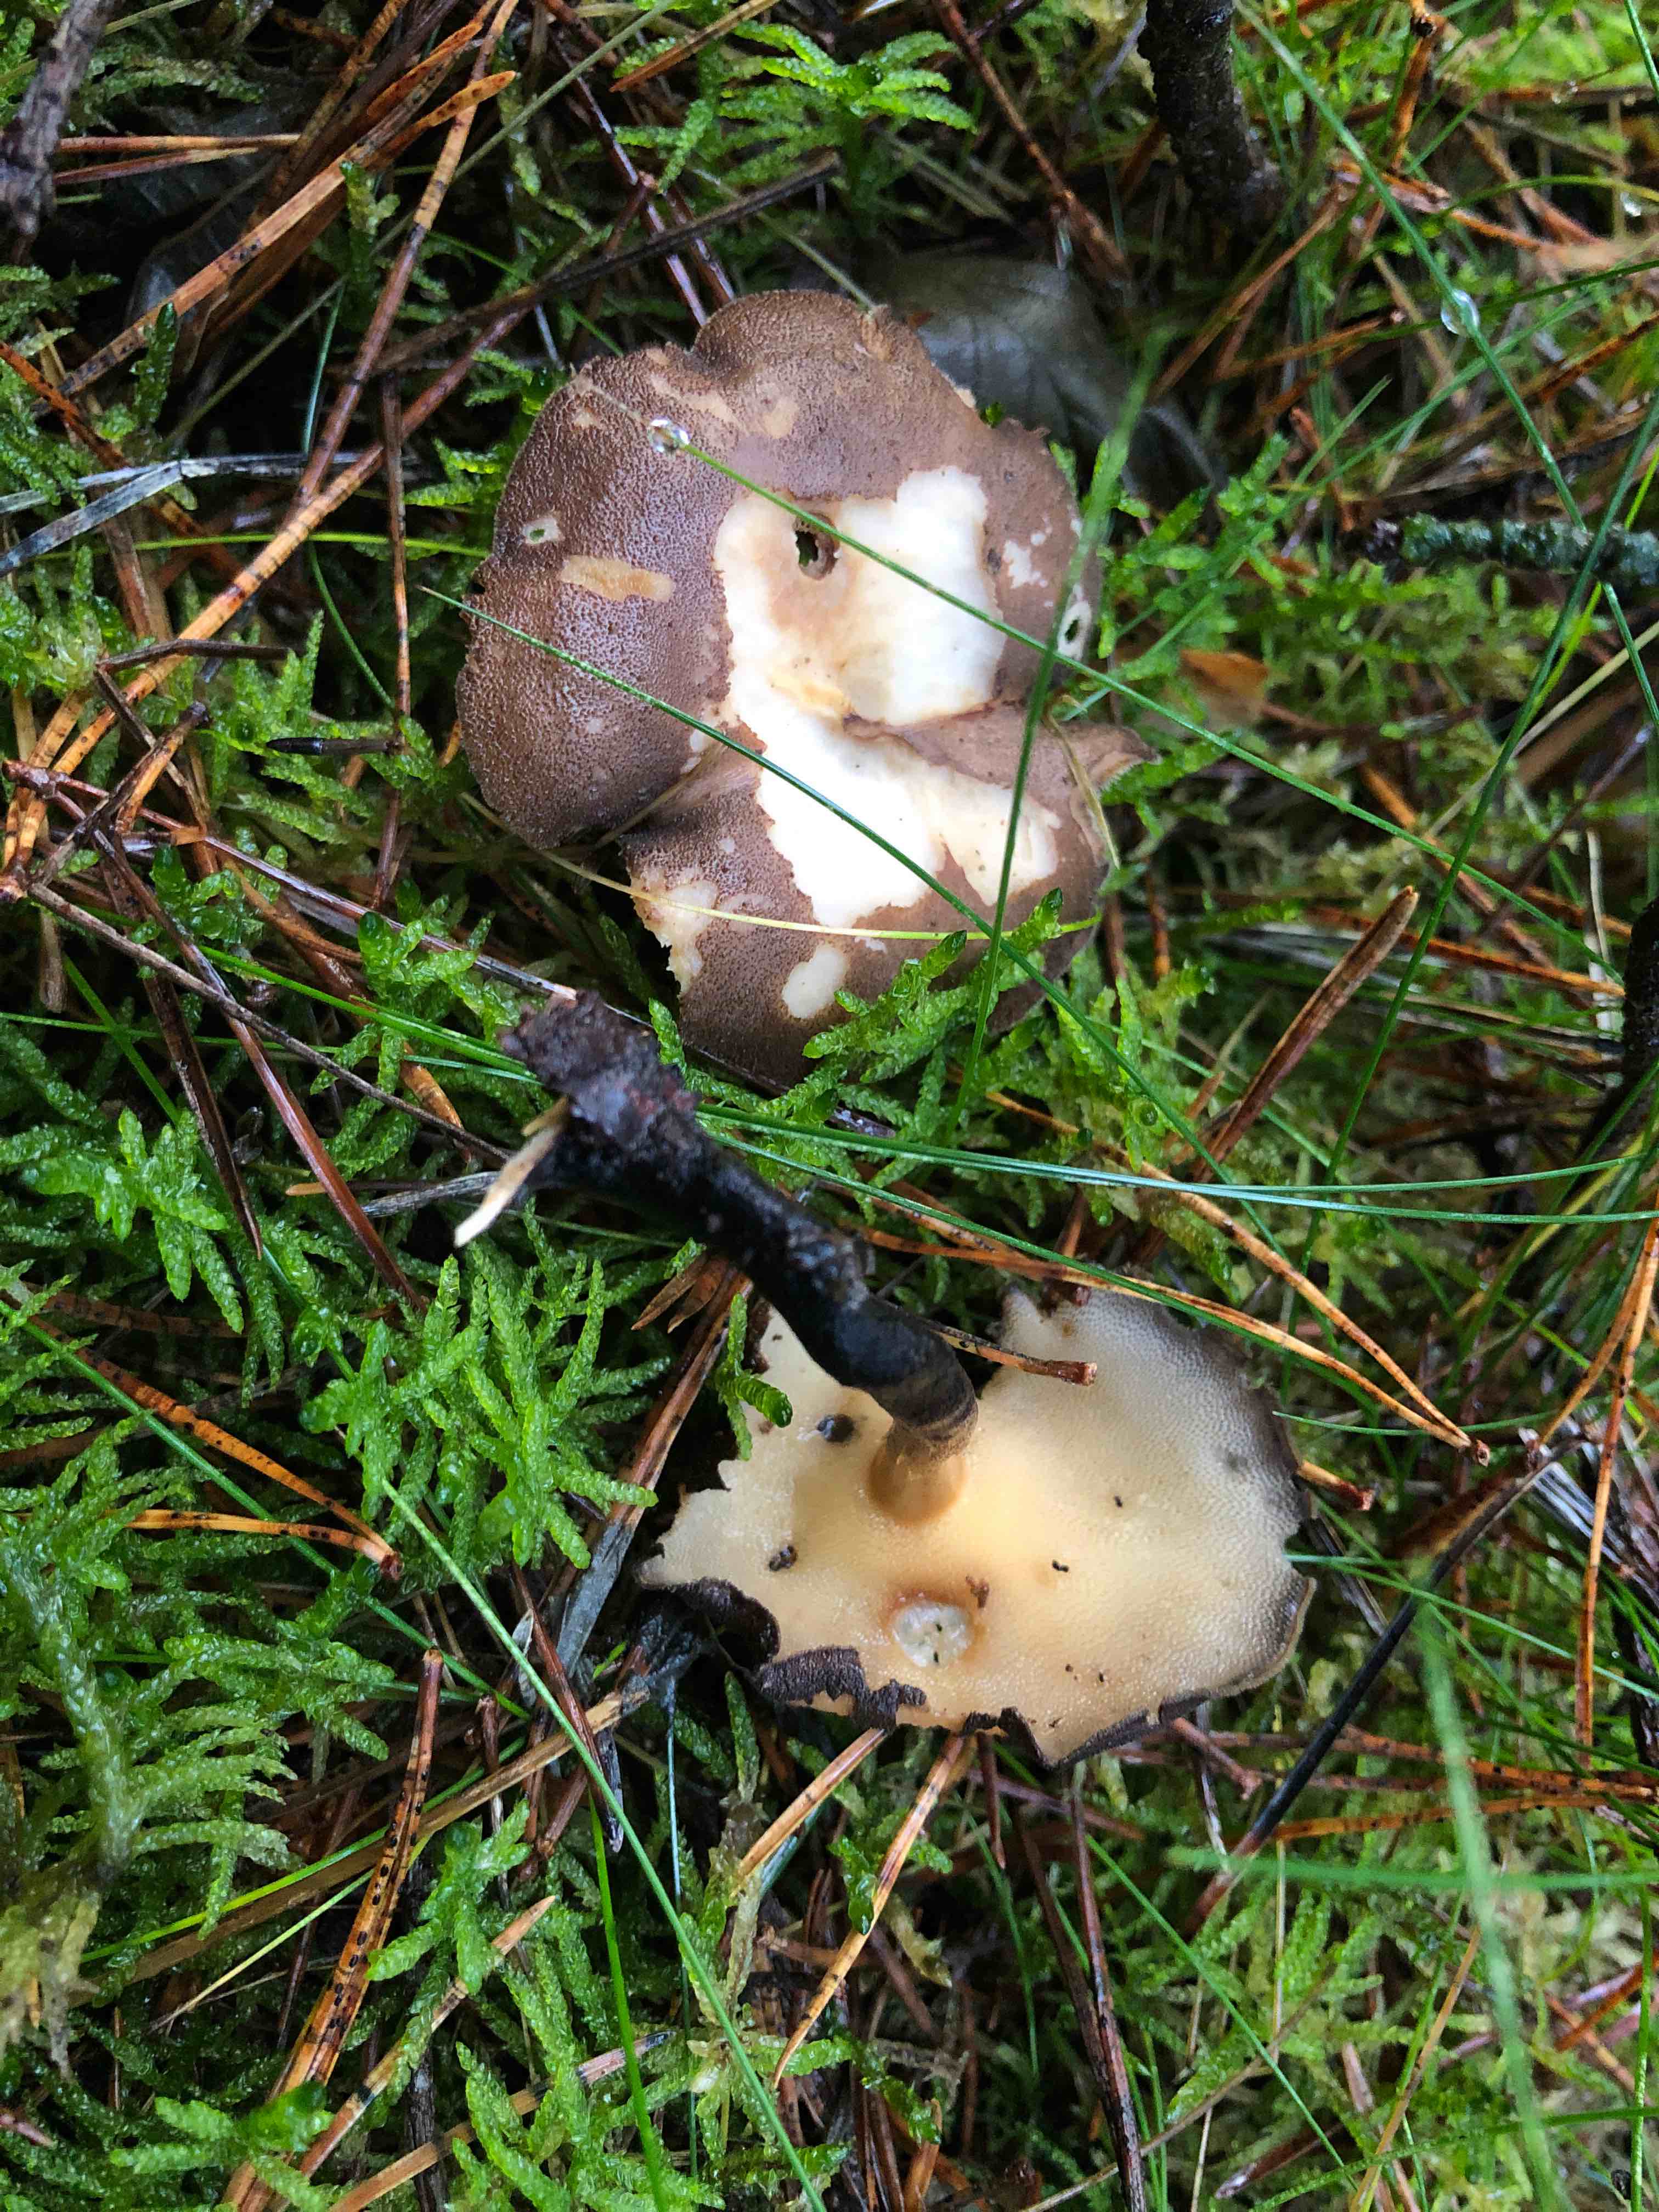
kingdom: Fungi
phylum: Basidiomycota
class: Agaricomycetes
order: Polyporales
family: Polyporaceae
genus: Lentinus
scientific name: Lentinus brumalis
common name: vinter-stilkporesvamp
